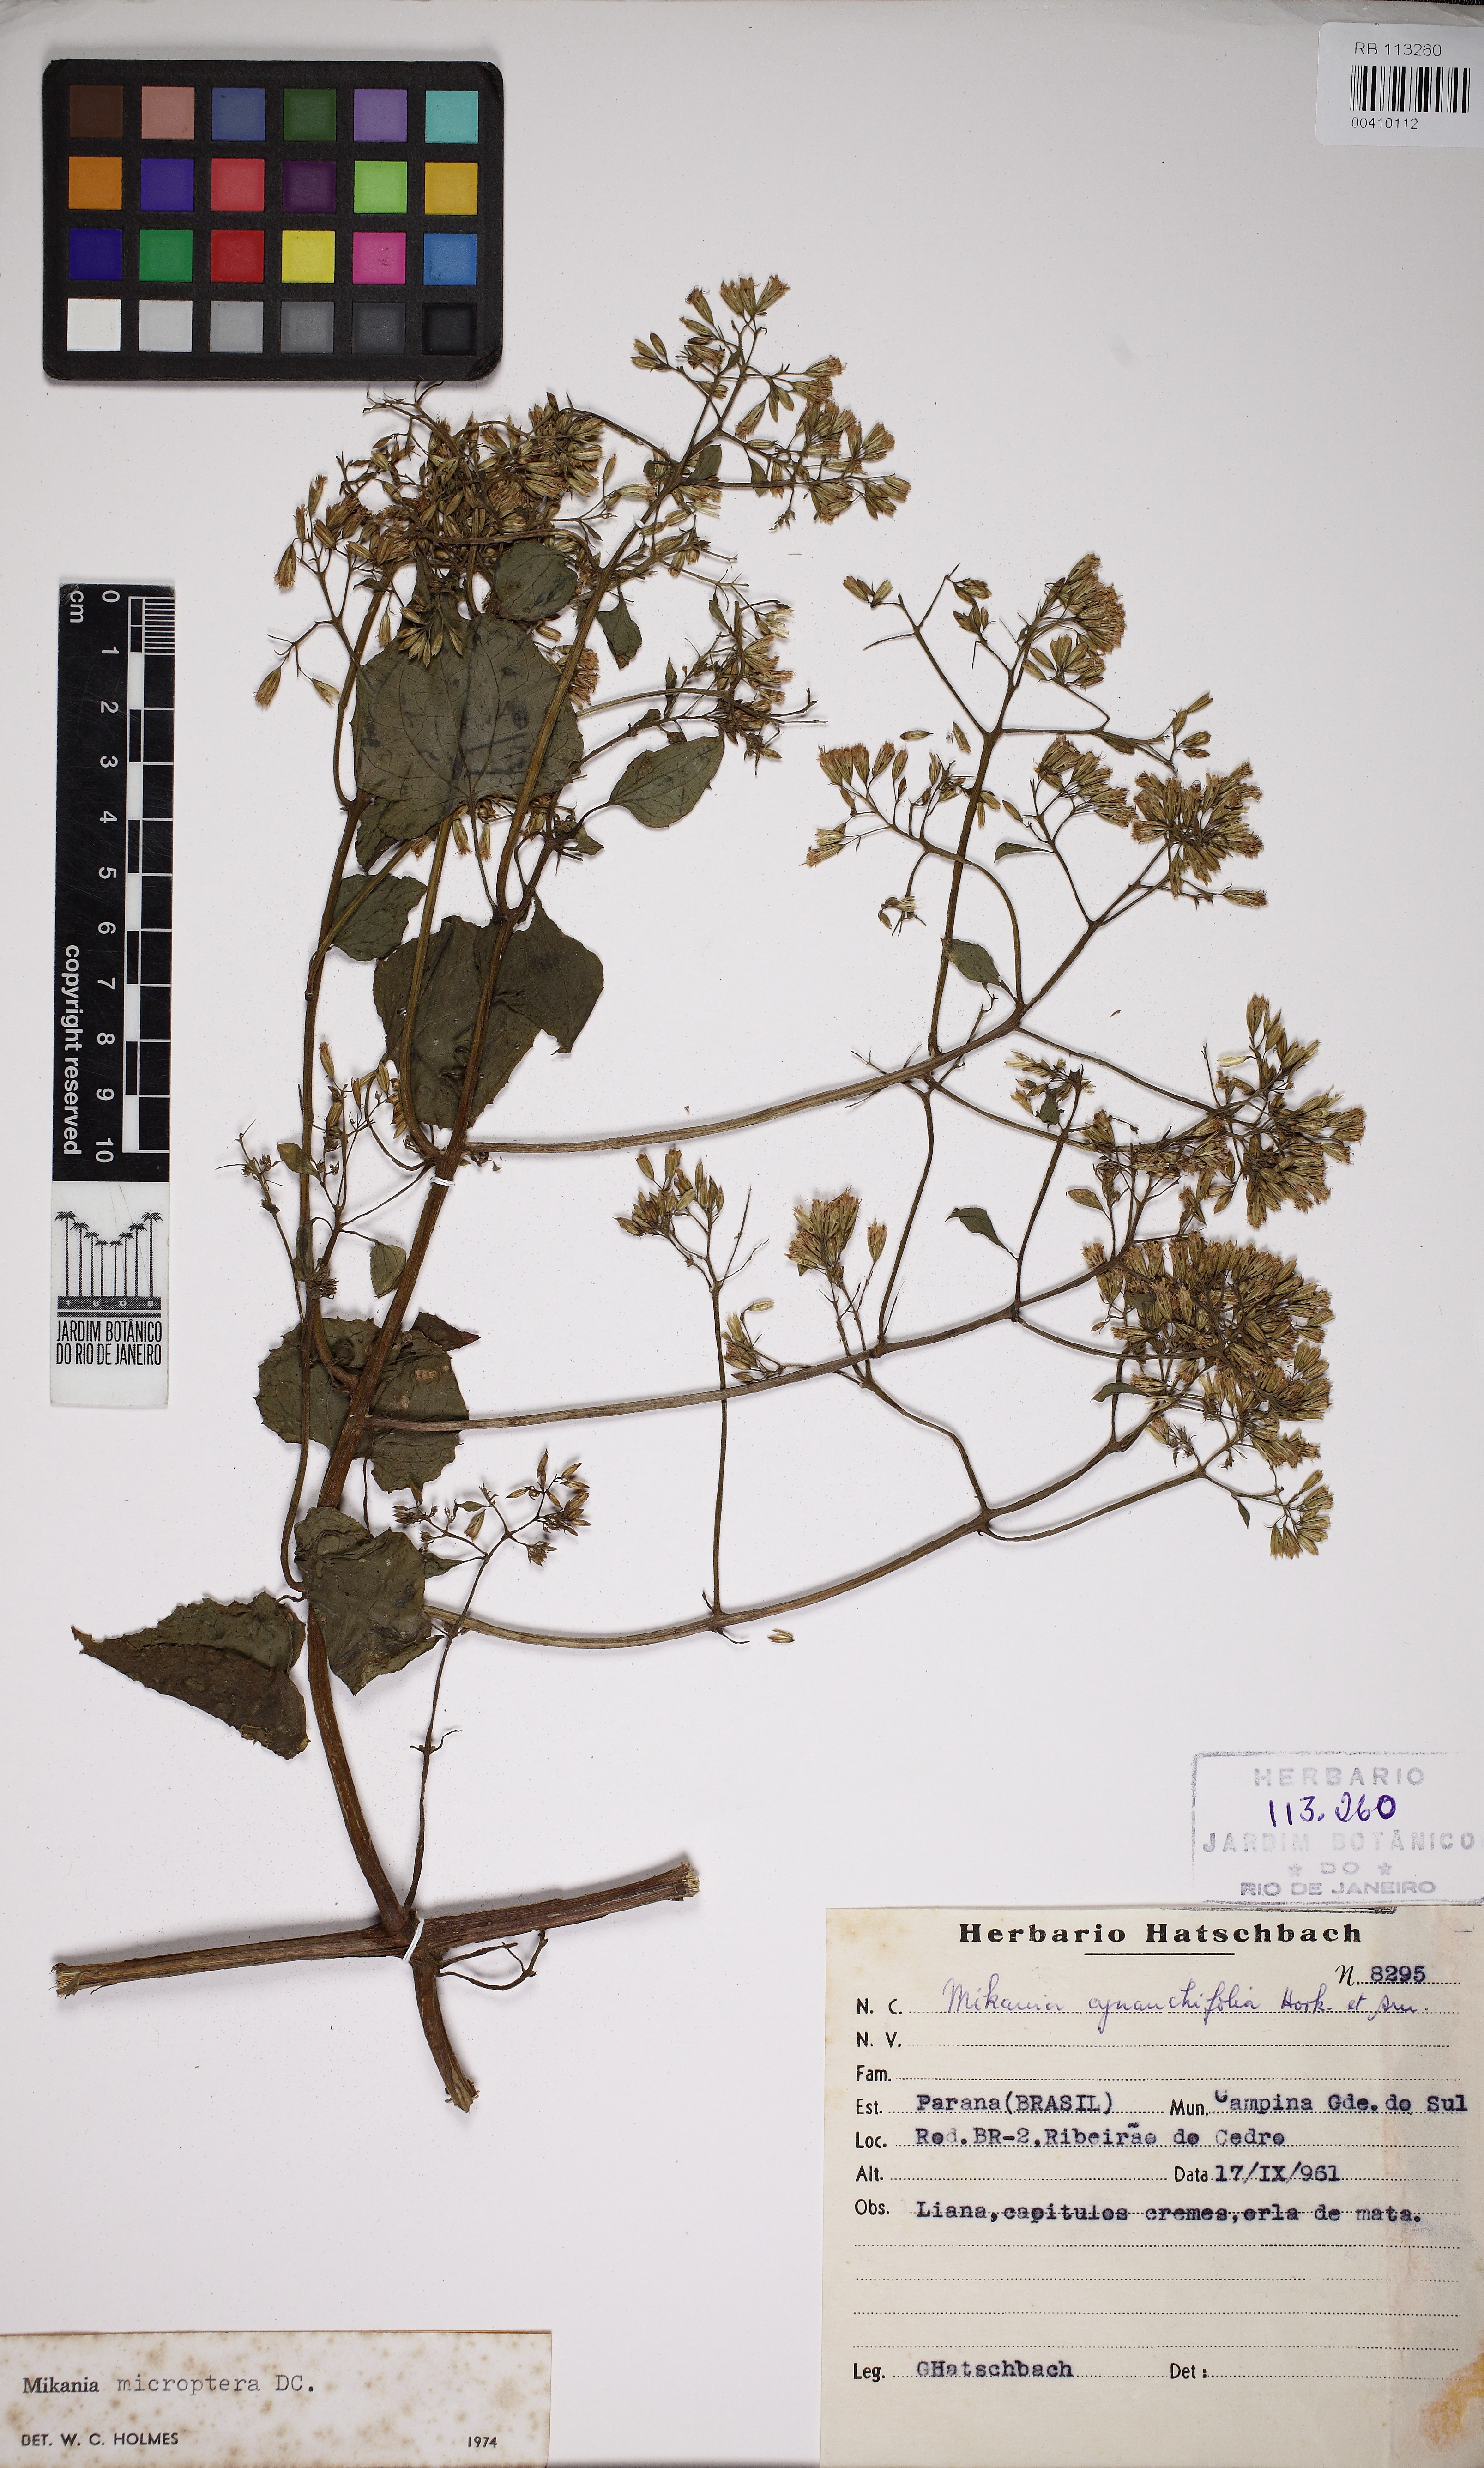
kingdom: Plantae
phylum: Tracheophyta
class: Magnoliopsida
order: Asterales
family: Asteraceae
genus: Mikania
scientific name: Mikania microptera
